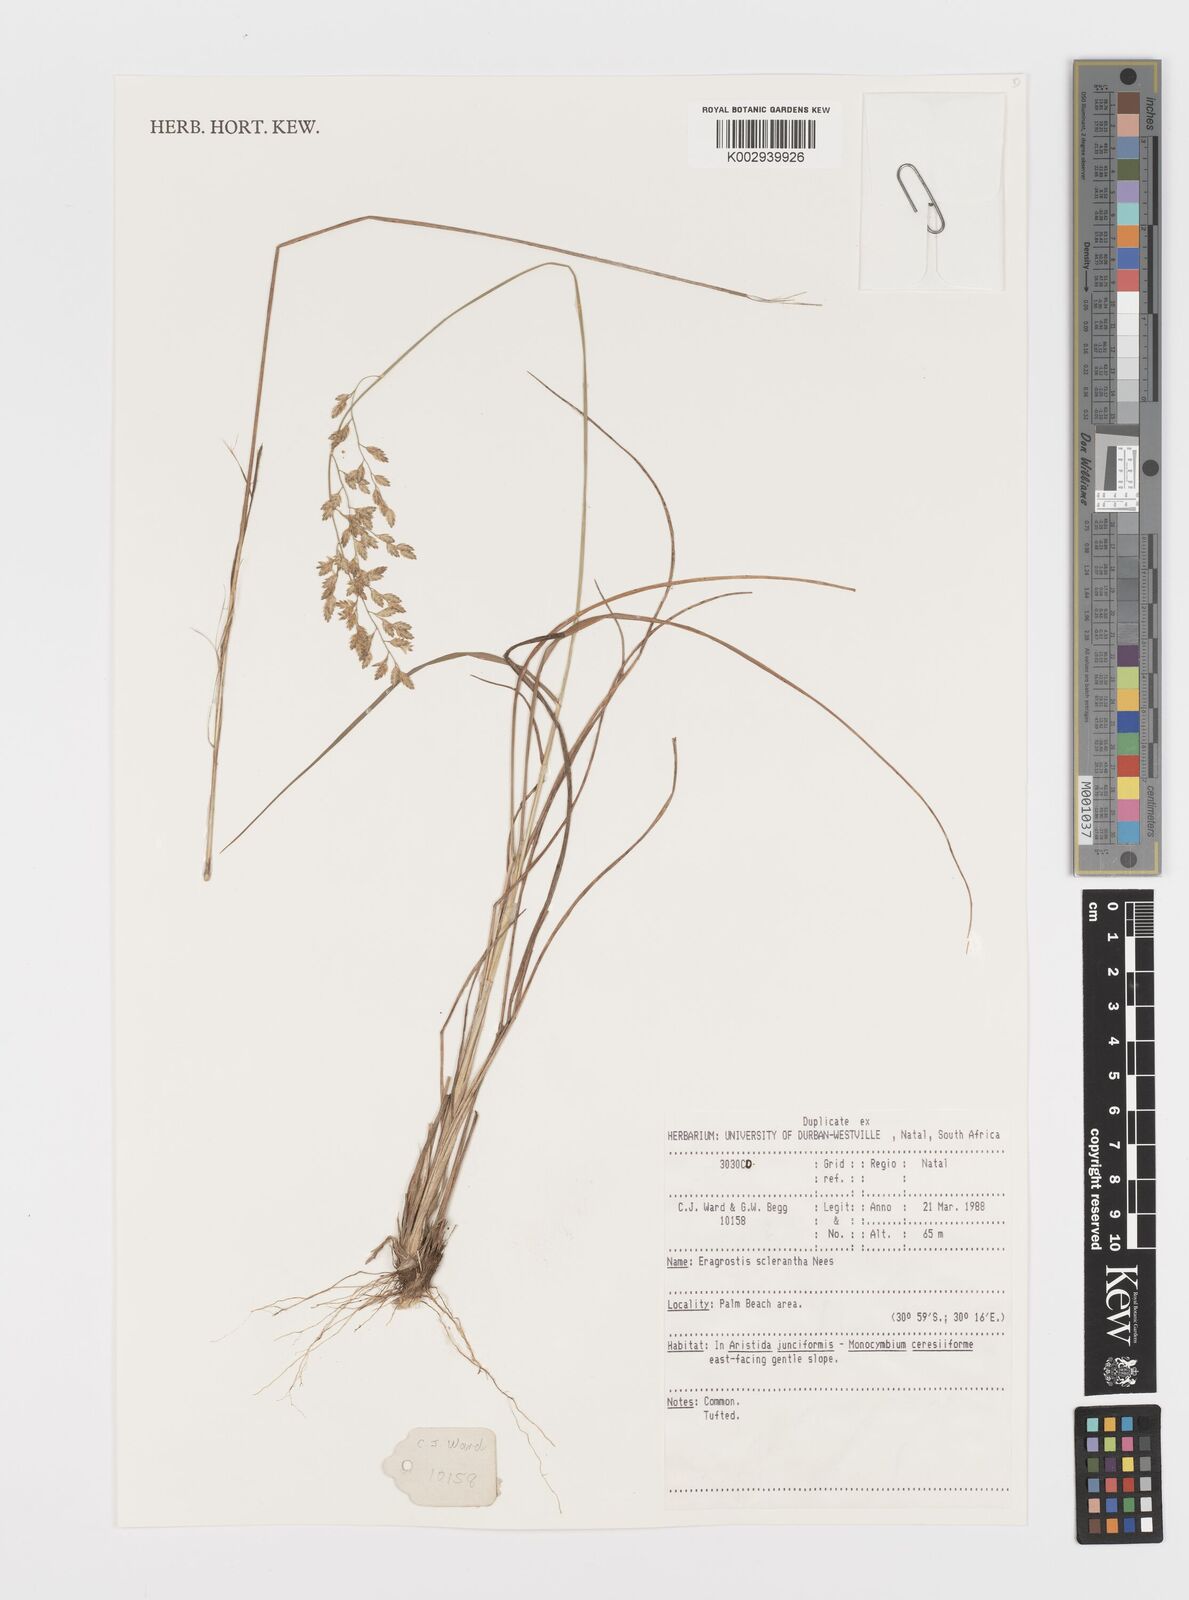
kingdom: Plantae
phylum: Tracheophyta
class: Liliopsida
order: Poales
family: Poaceae
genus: Eragrostis
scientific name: Eragrostis sclerantha
